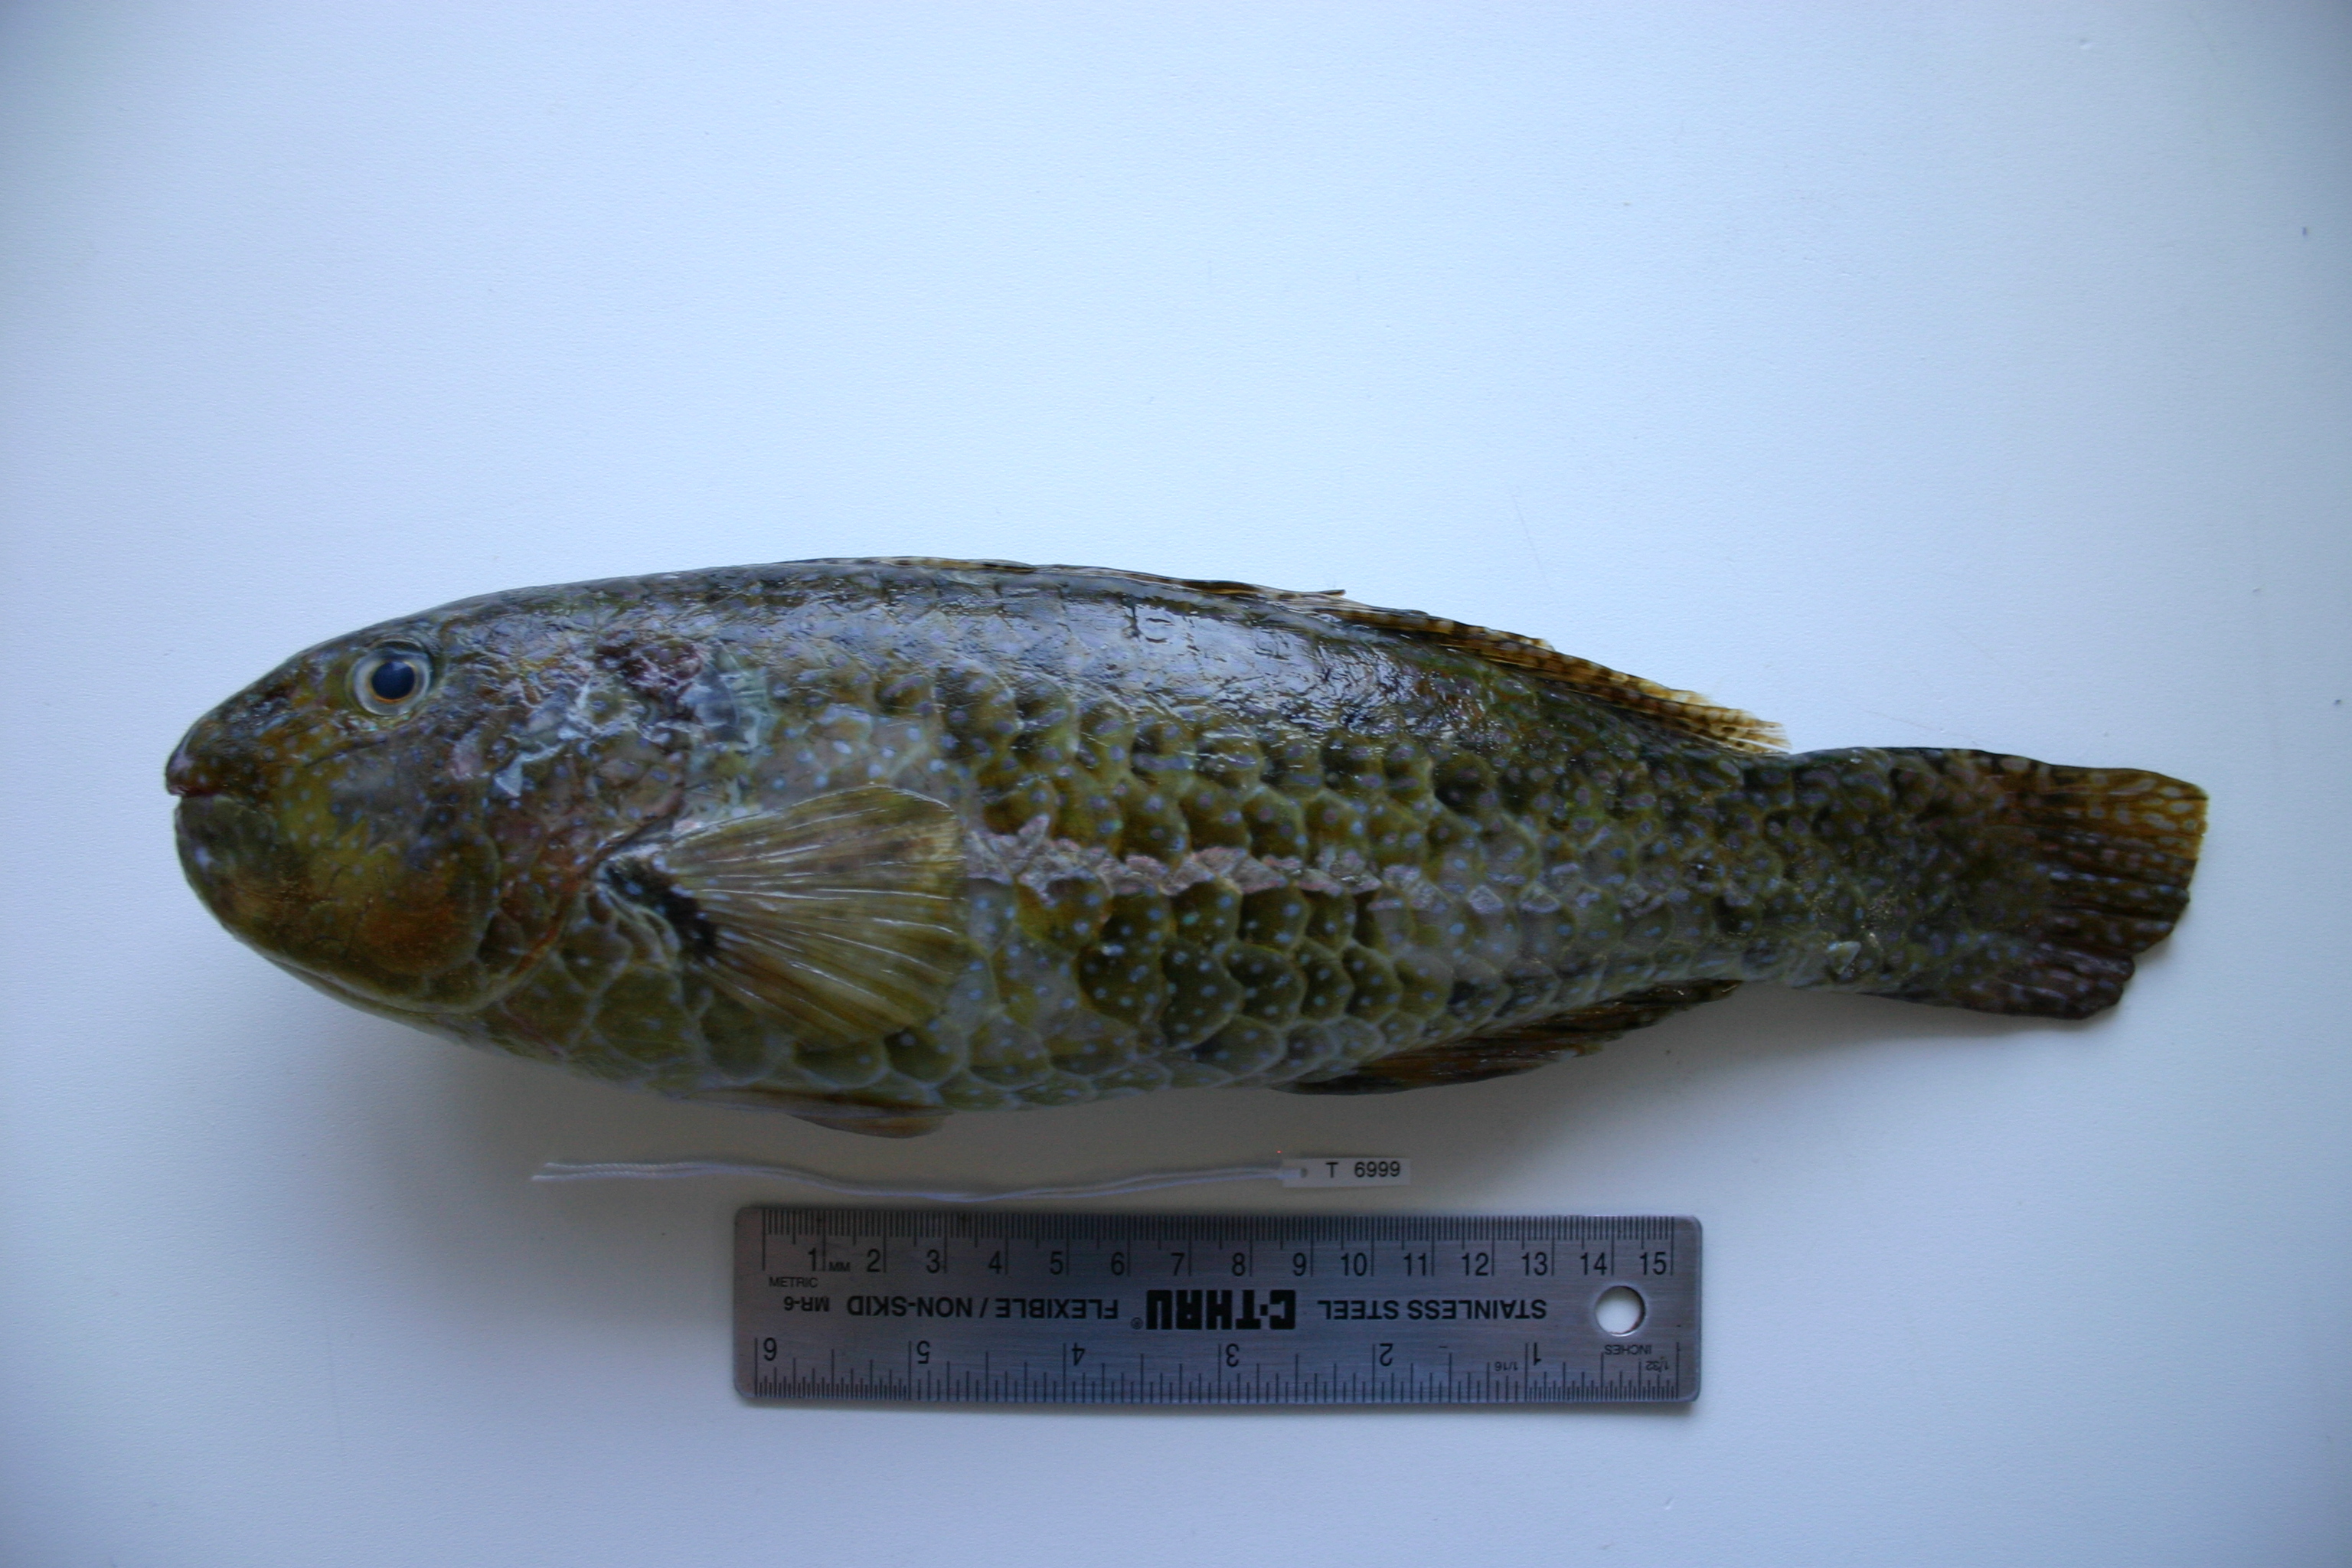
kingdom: Animalia
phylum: Chordata
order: Perciformes
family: Scaridae
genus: Leptoscarus
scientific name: Leptoscarus vaigiensis
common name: Marbled parrotfish
